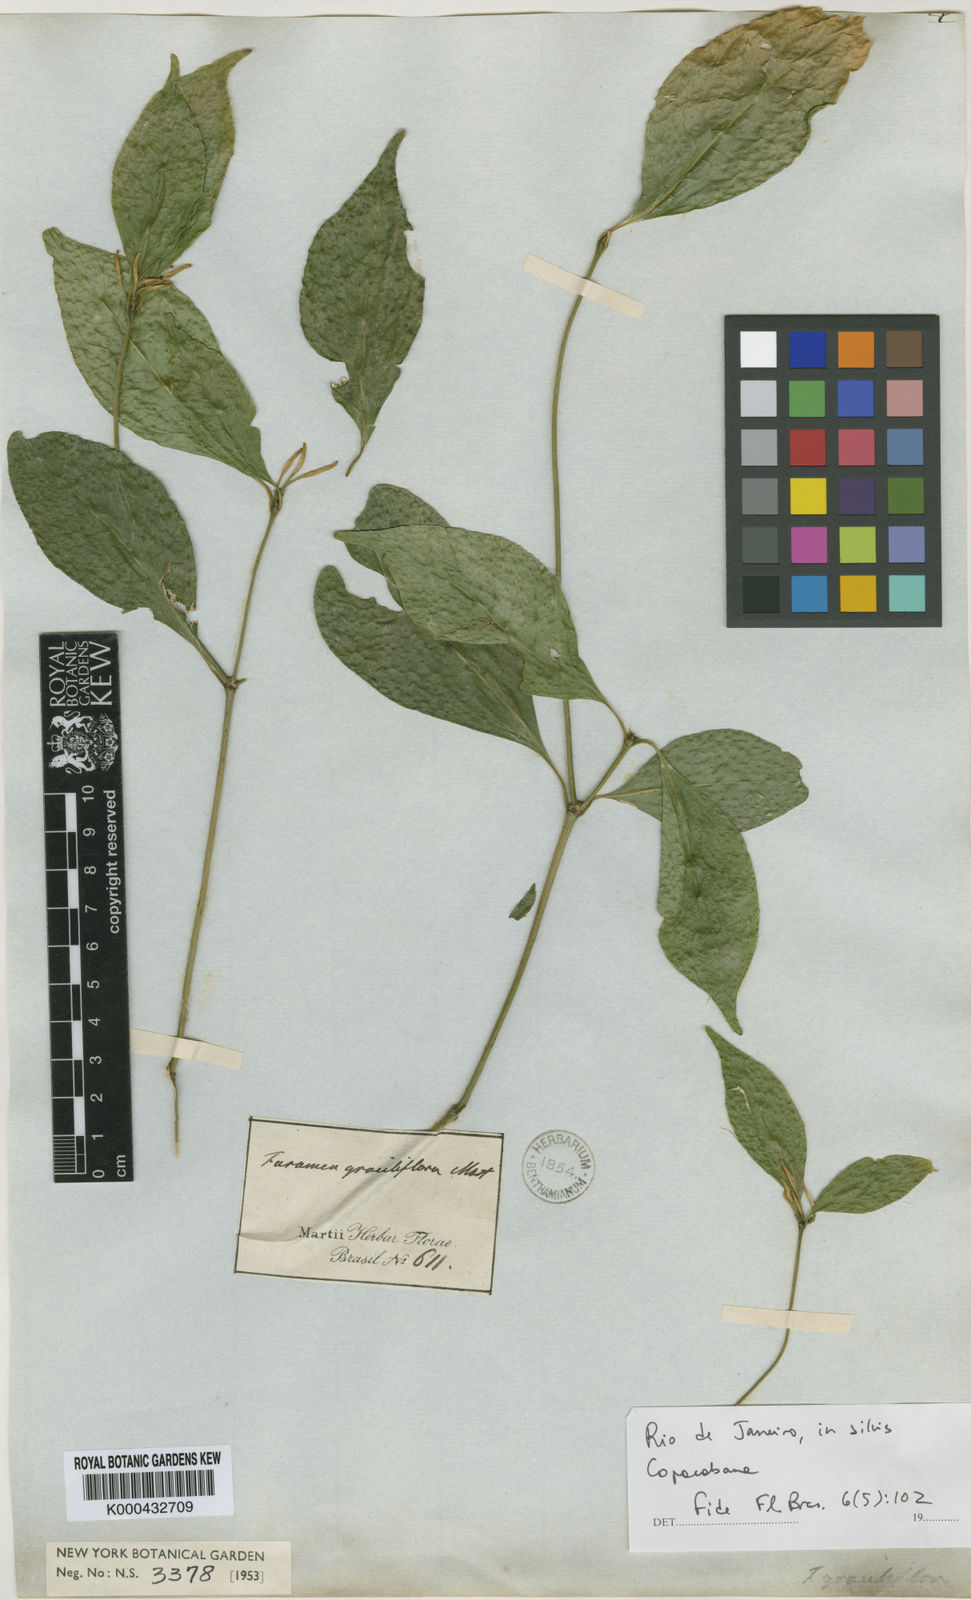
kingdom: Plantae
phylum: Tracheophyta
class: Magnoliopsida
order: Gentianales
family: Rubiaceae
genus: Coussarea
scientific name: Coussarea
